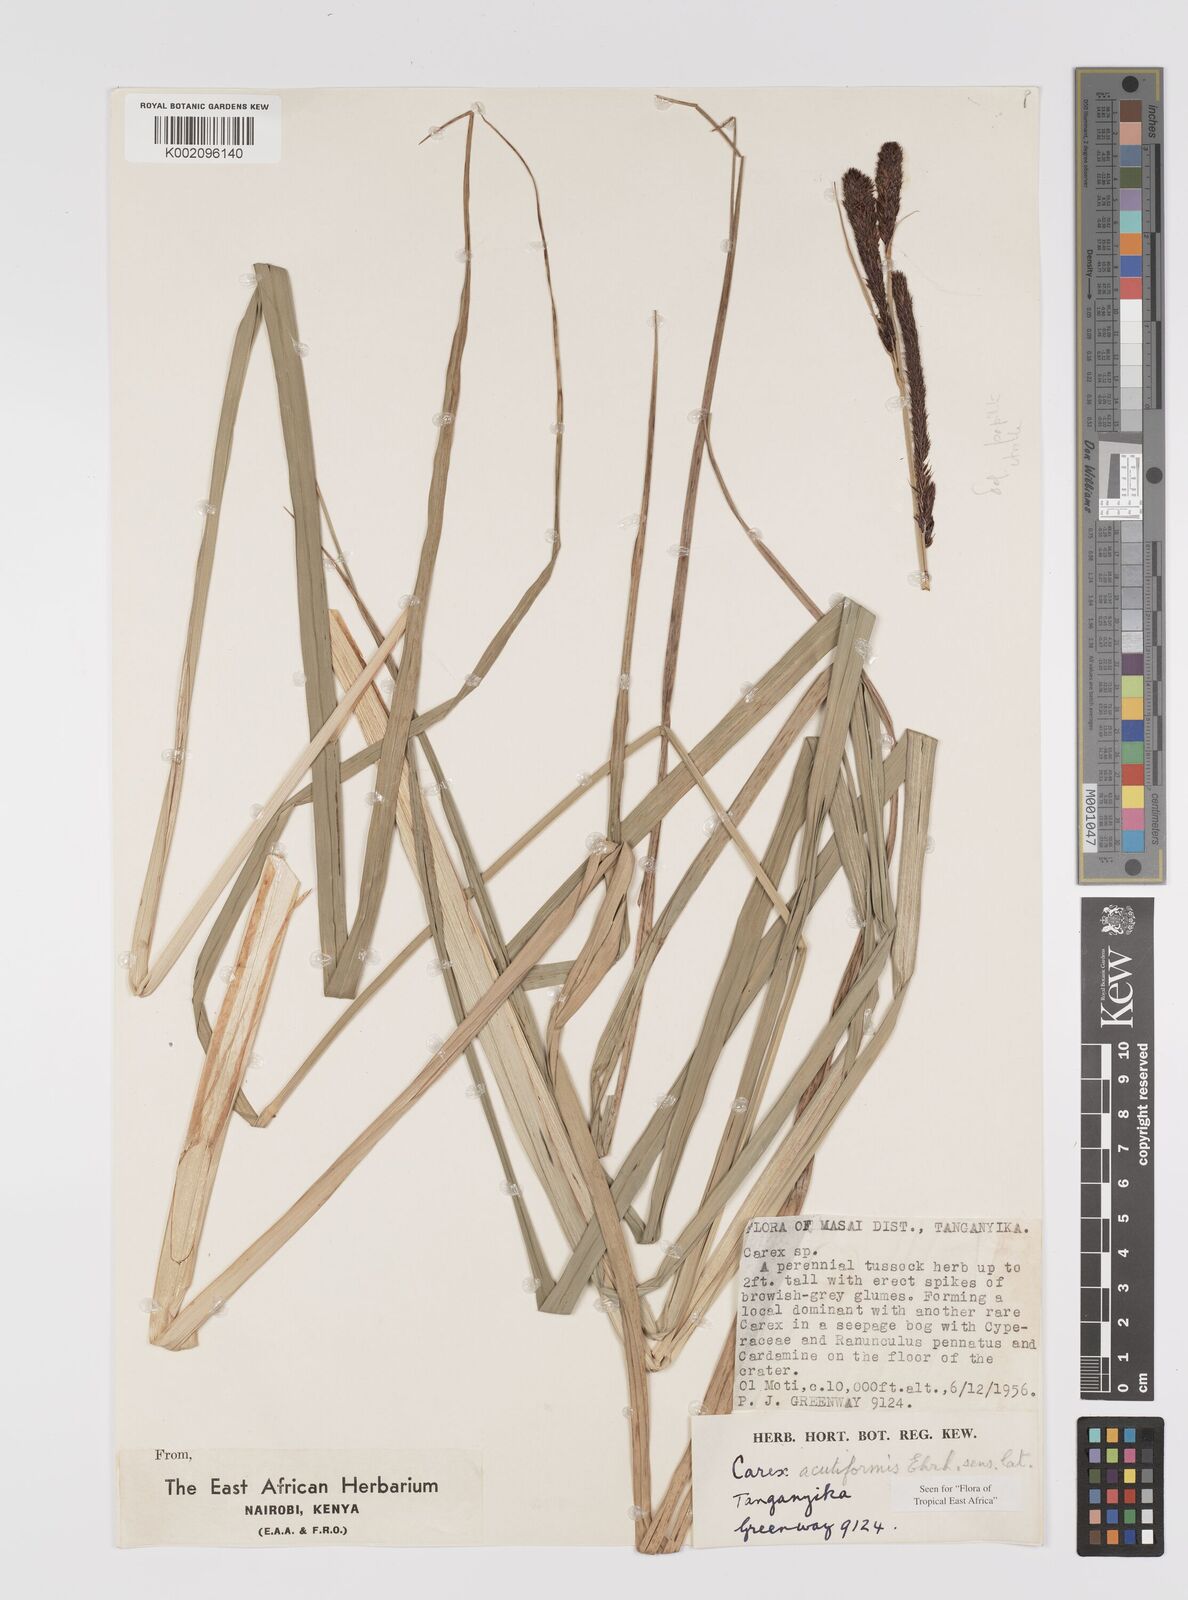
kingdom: Plantae
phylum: Tracheophyta
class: Liliopsida
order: Poales
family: Cyperaceae
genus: Carex
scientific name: Carex acutiformis
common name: Lesser pond-sedge
